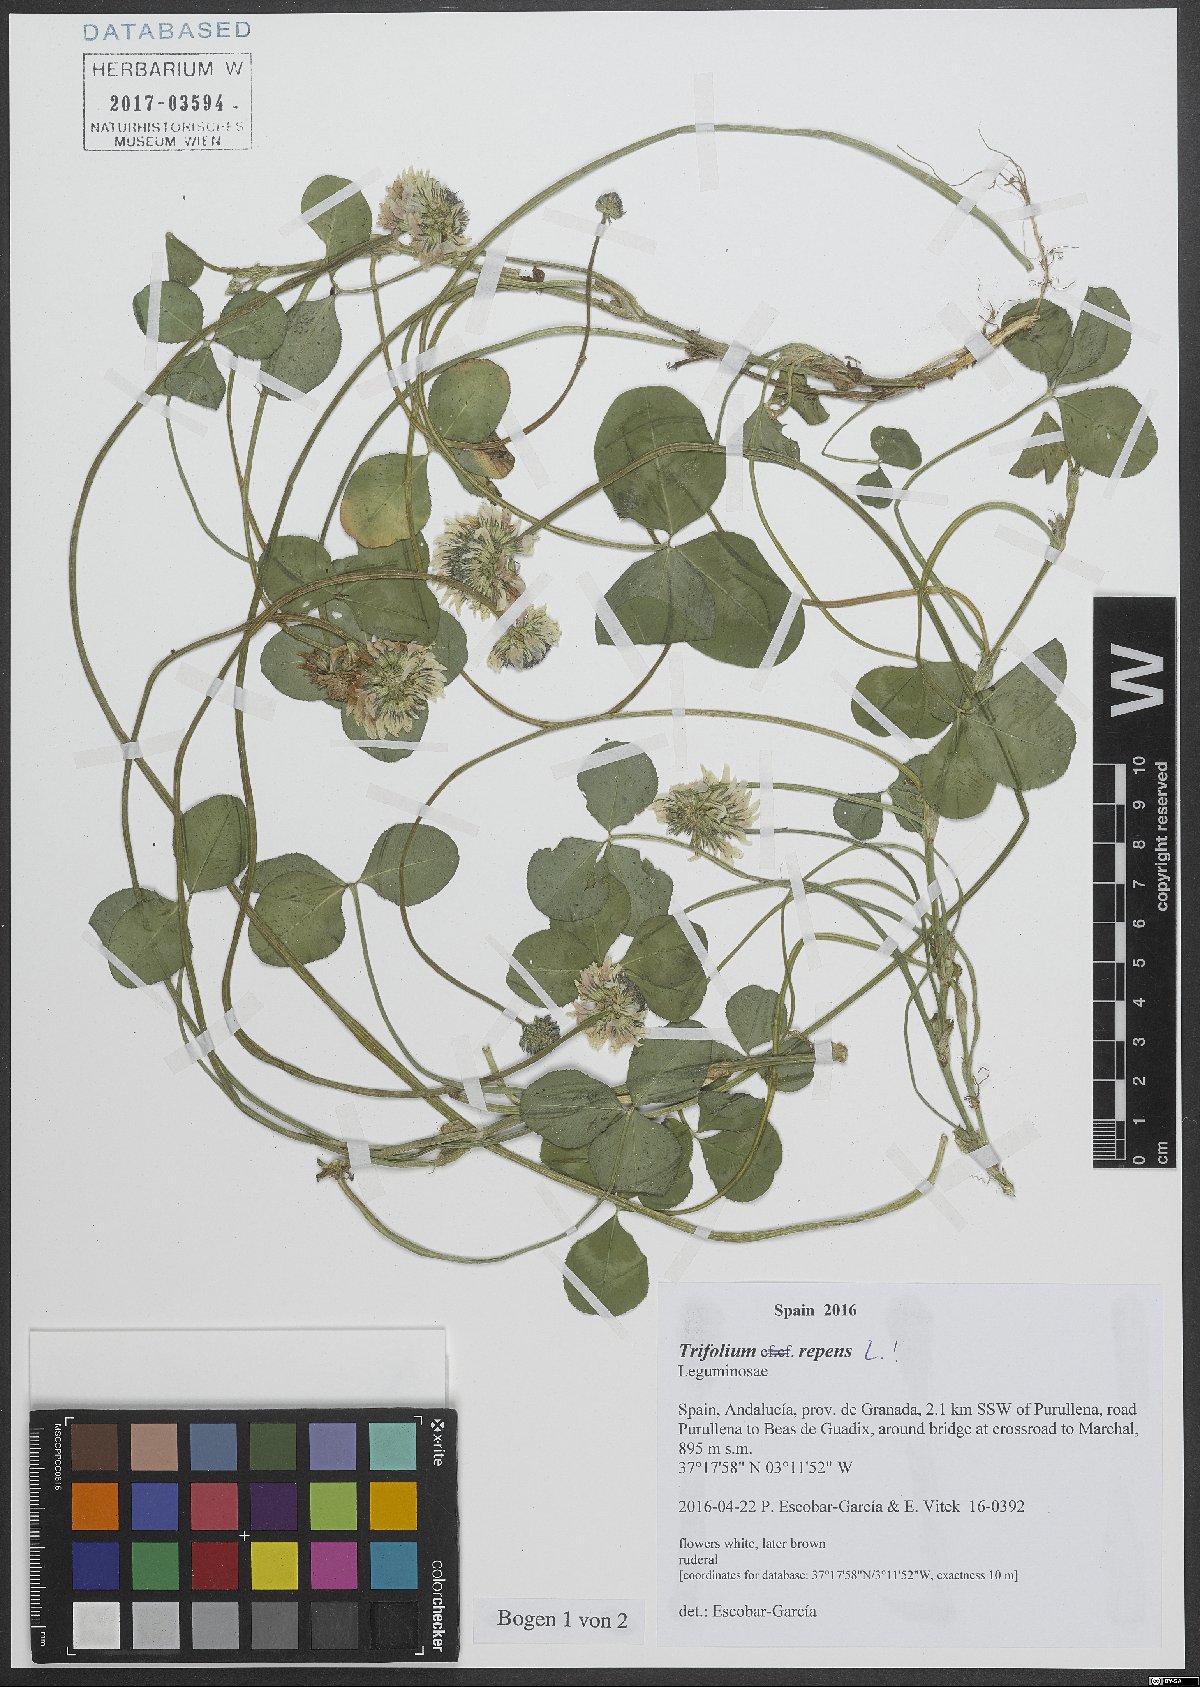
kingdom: Plantae
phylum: Tracheophyta
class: Magnoliopsida
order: Fabales
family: Fabaceae
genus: Trifolium
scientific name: Trifolium repens
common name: White clover
